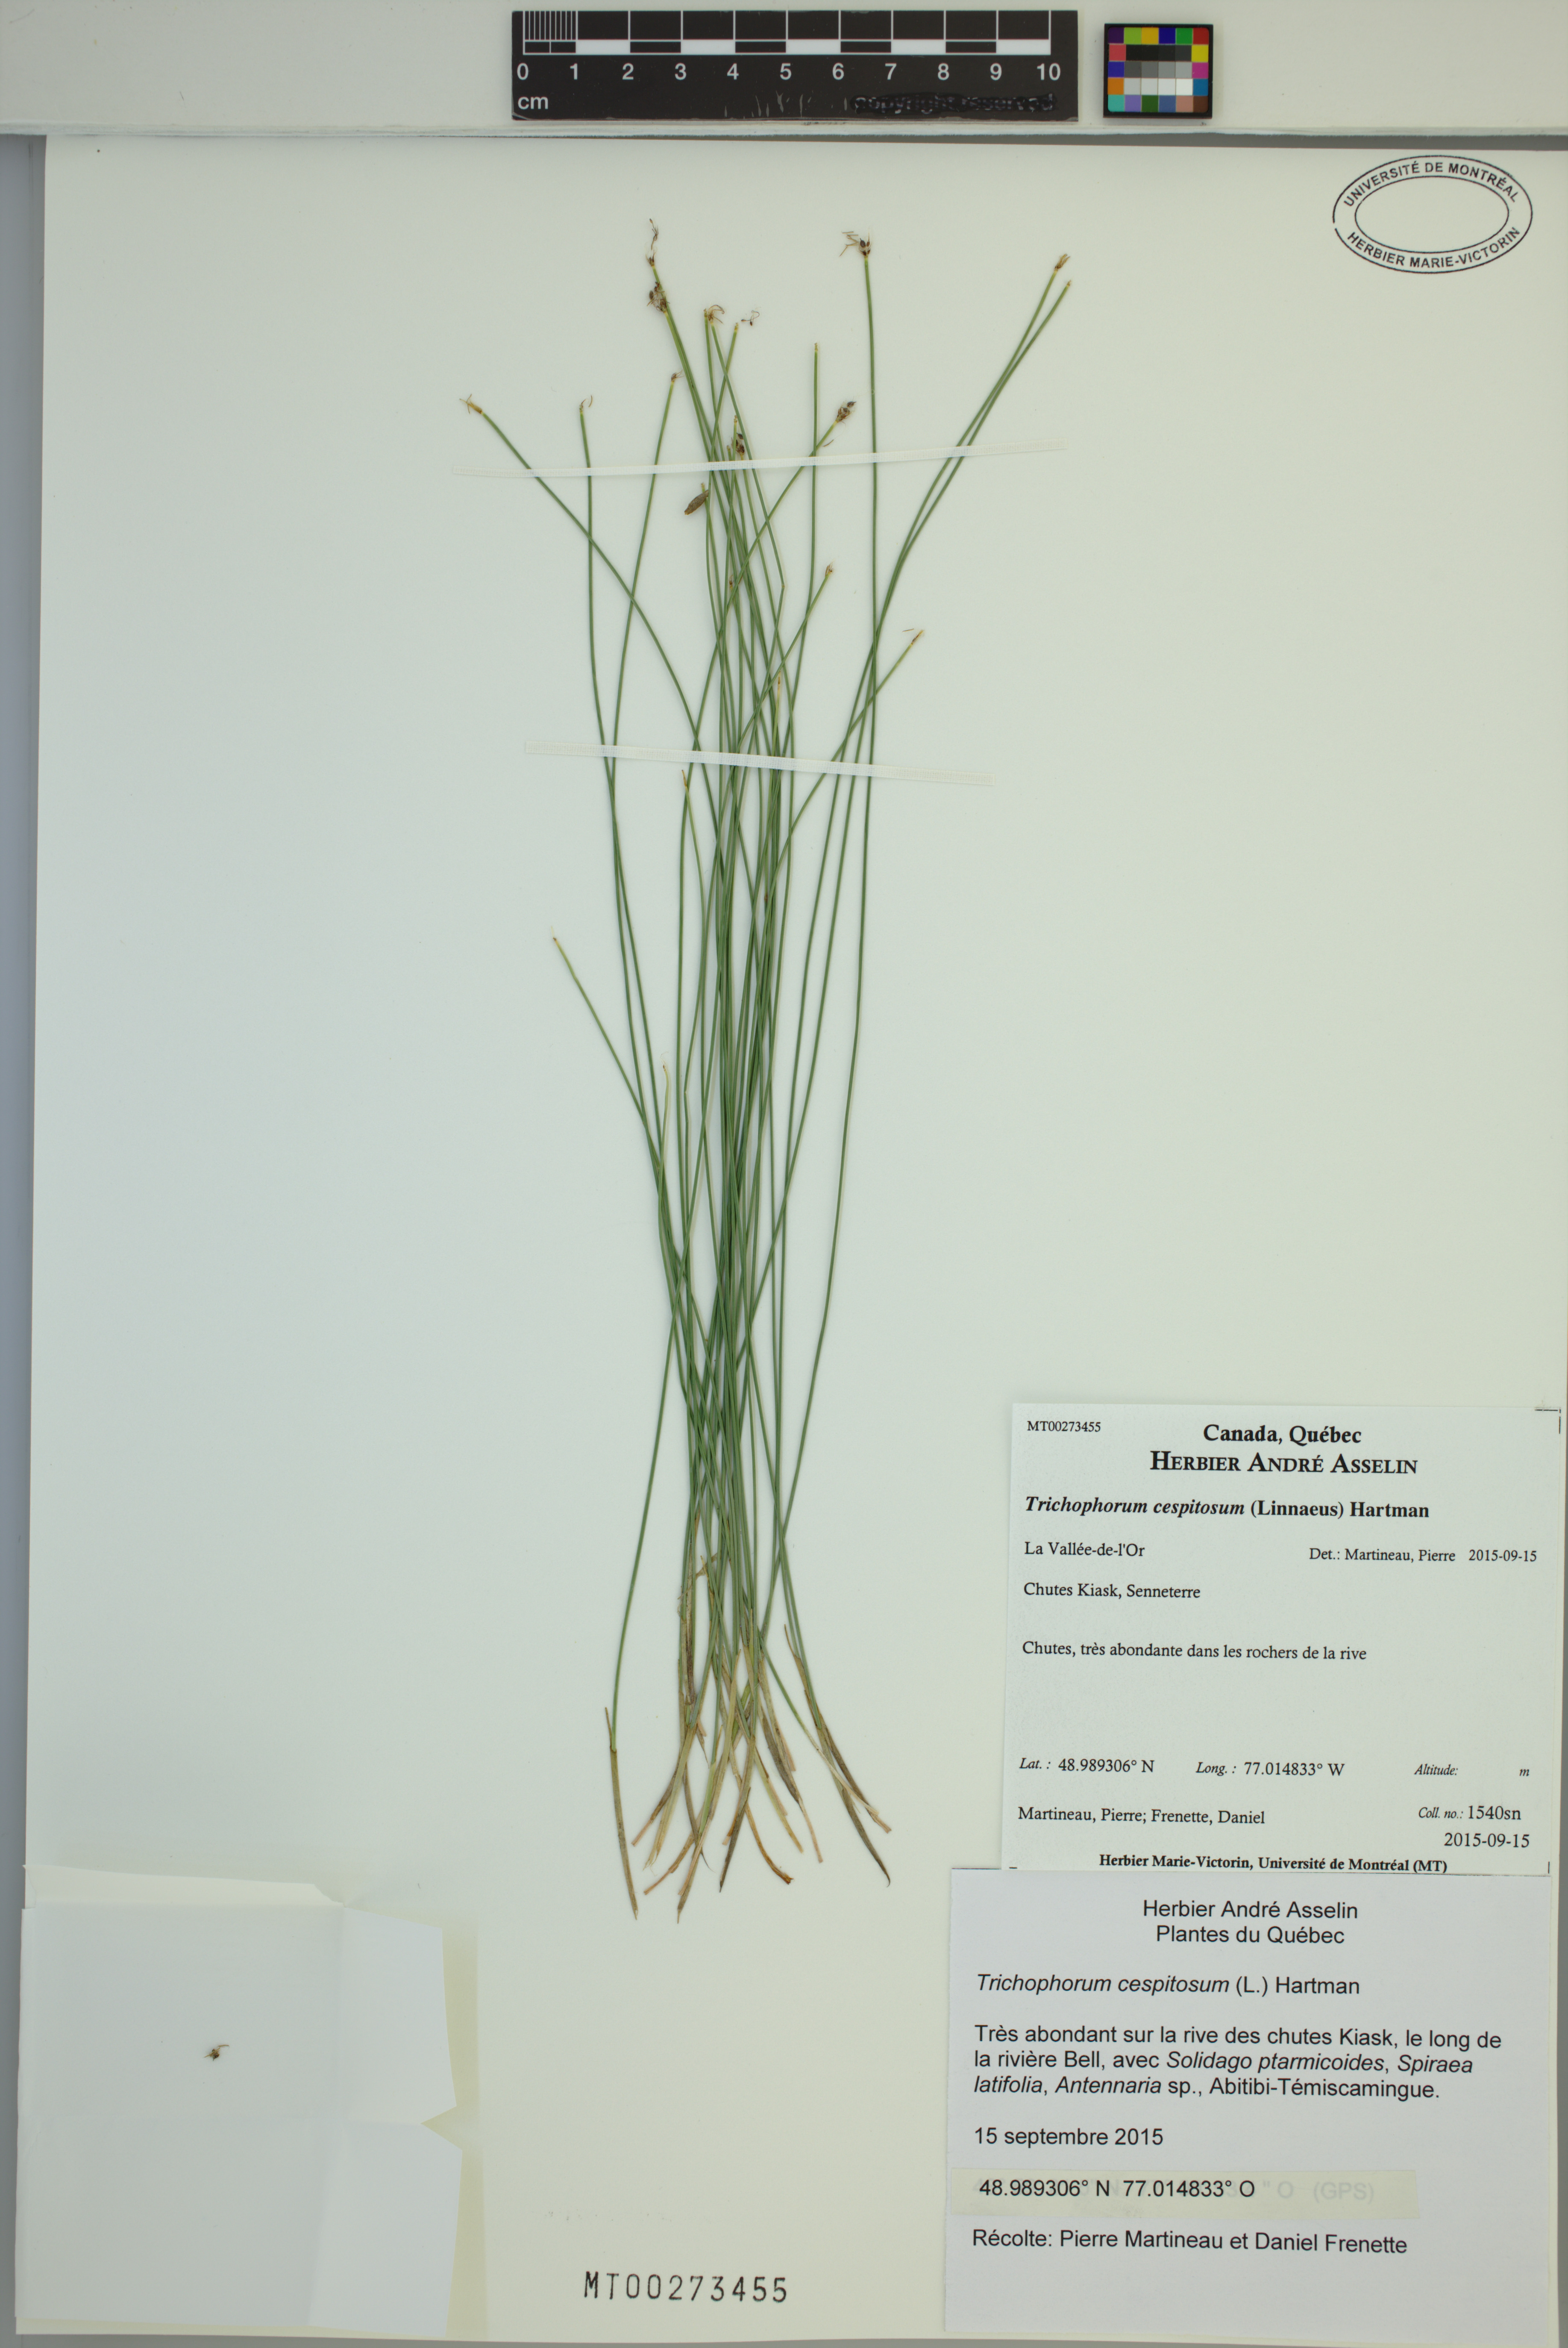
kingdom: Plantae
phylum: Tracheophyta
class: Liliopsida
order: Poales
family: Cyperaceae
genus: Trichophorum
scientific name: Trichophorum cespitosum
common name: Cespitose bulrush
